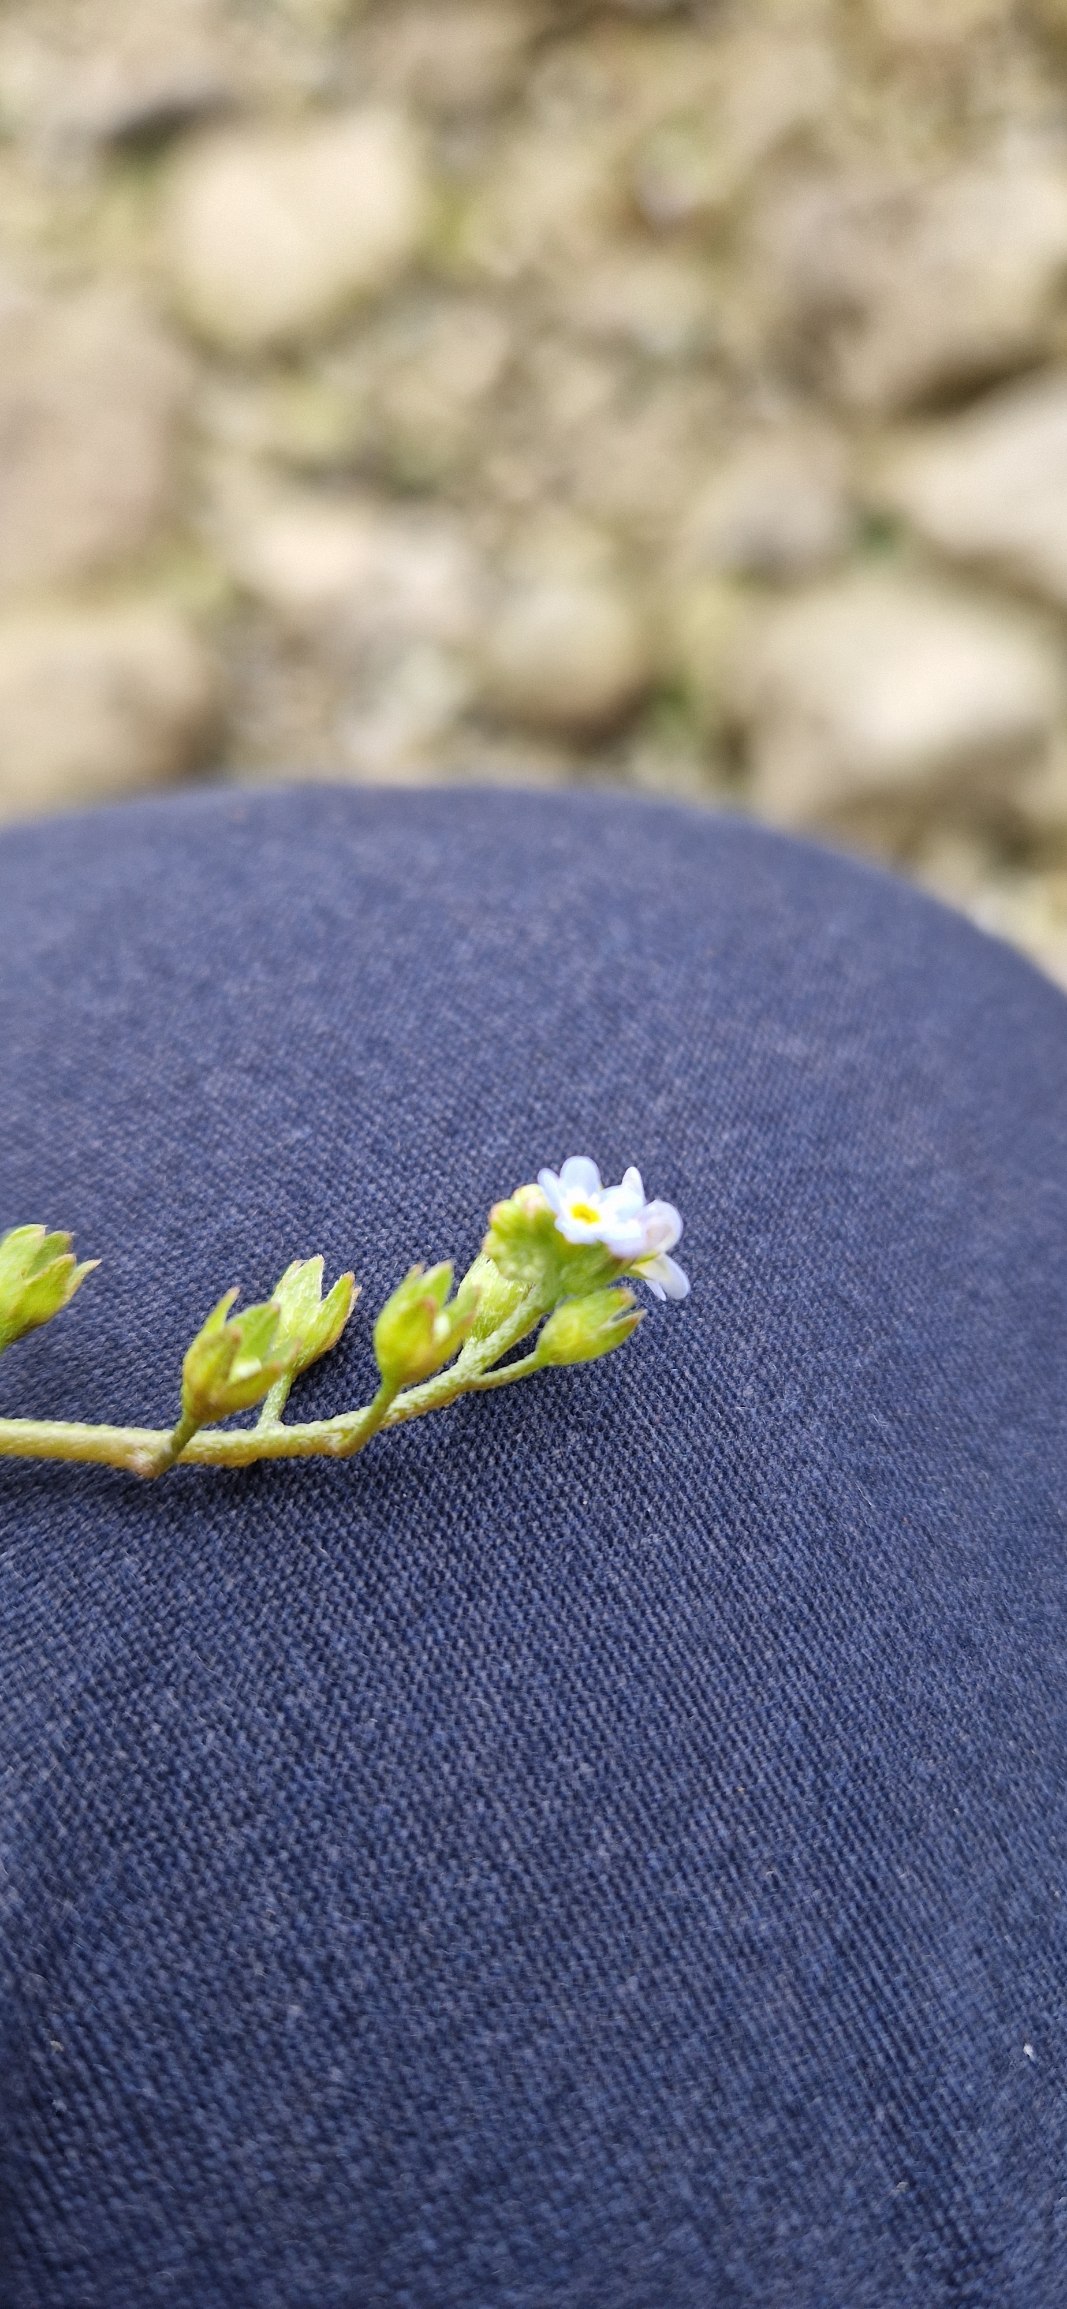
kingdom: Plantae
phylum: Tracheophyta
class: Magnoliopsida
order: Boraginales
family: Boraginaceae
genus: Myosotis
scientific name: Myosotis laxa
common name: Sump-forglemmigej
